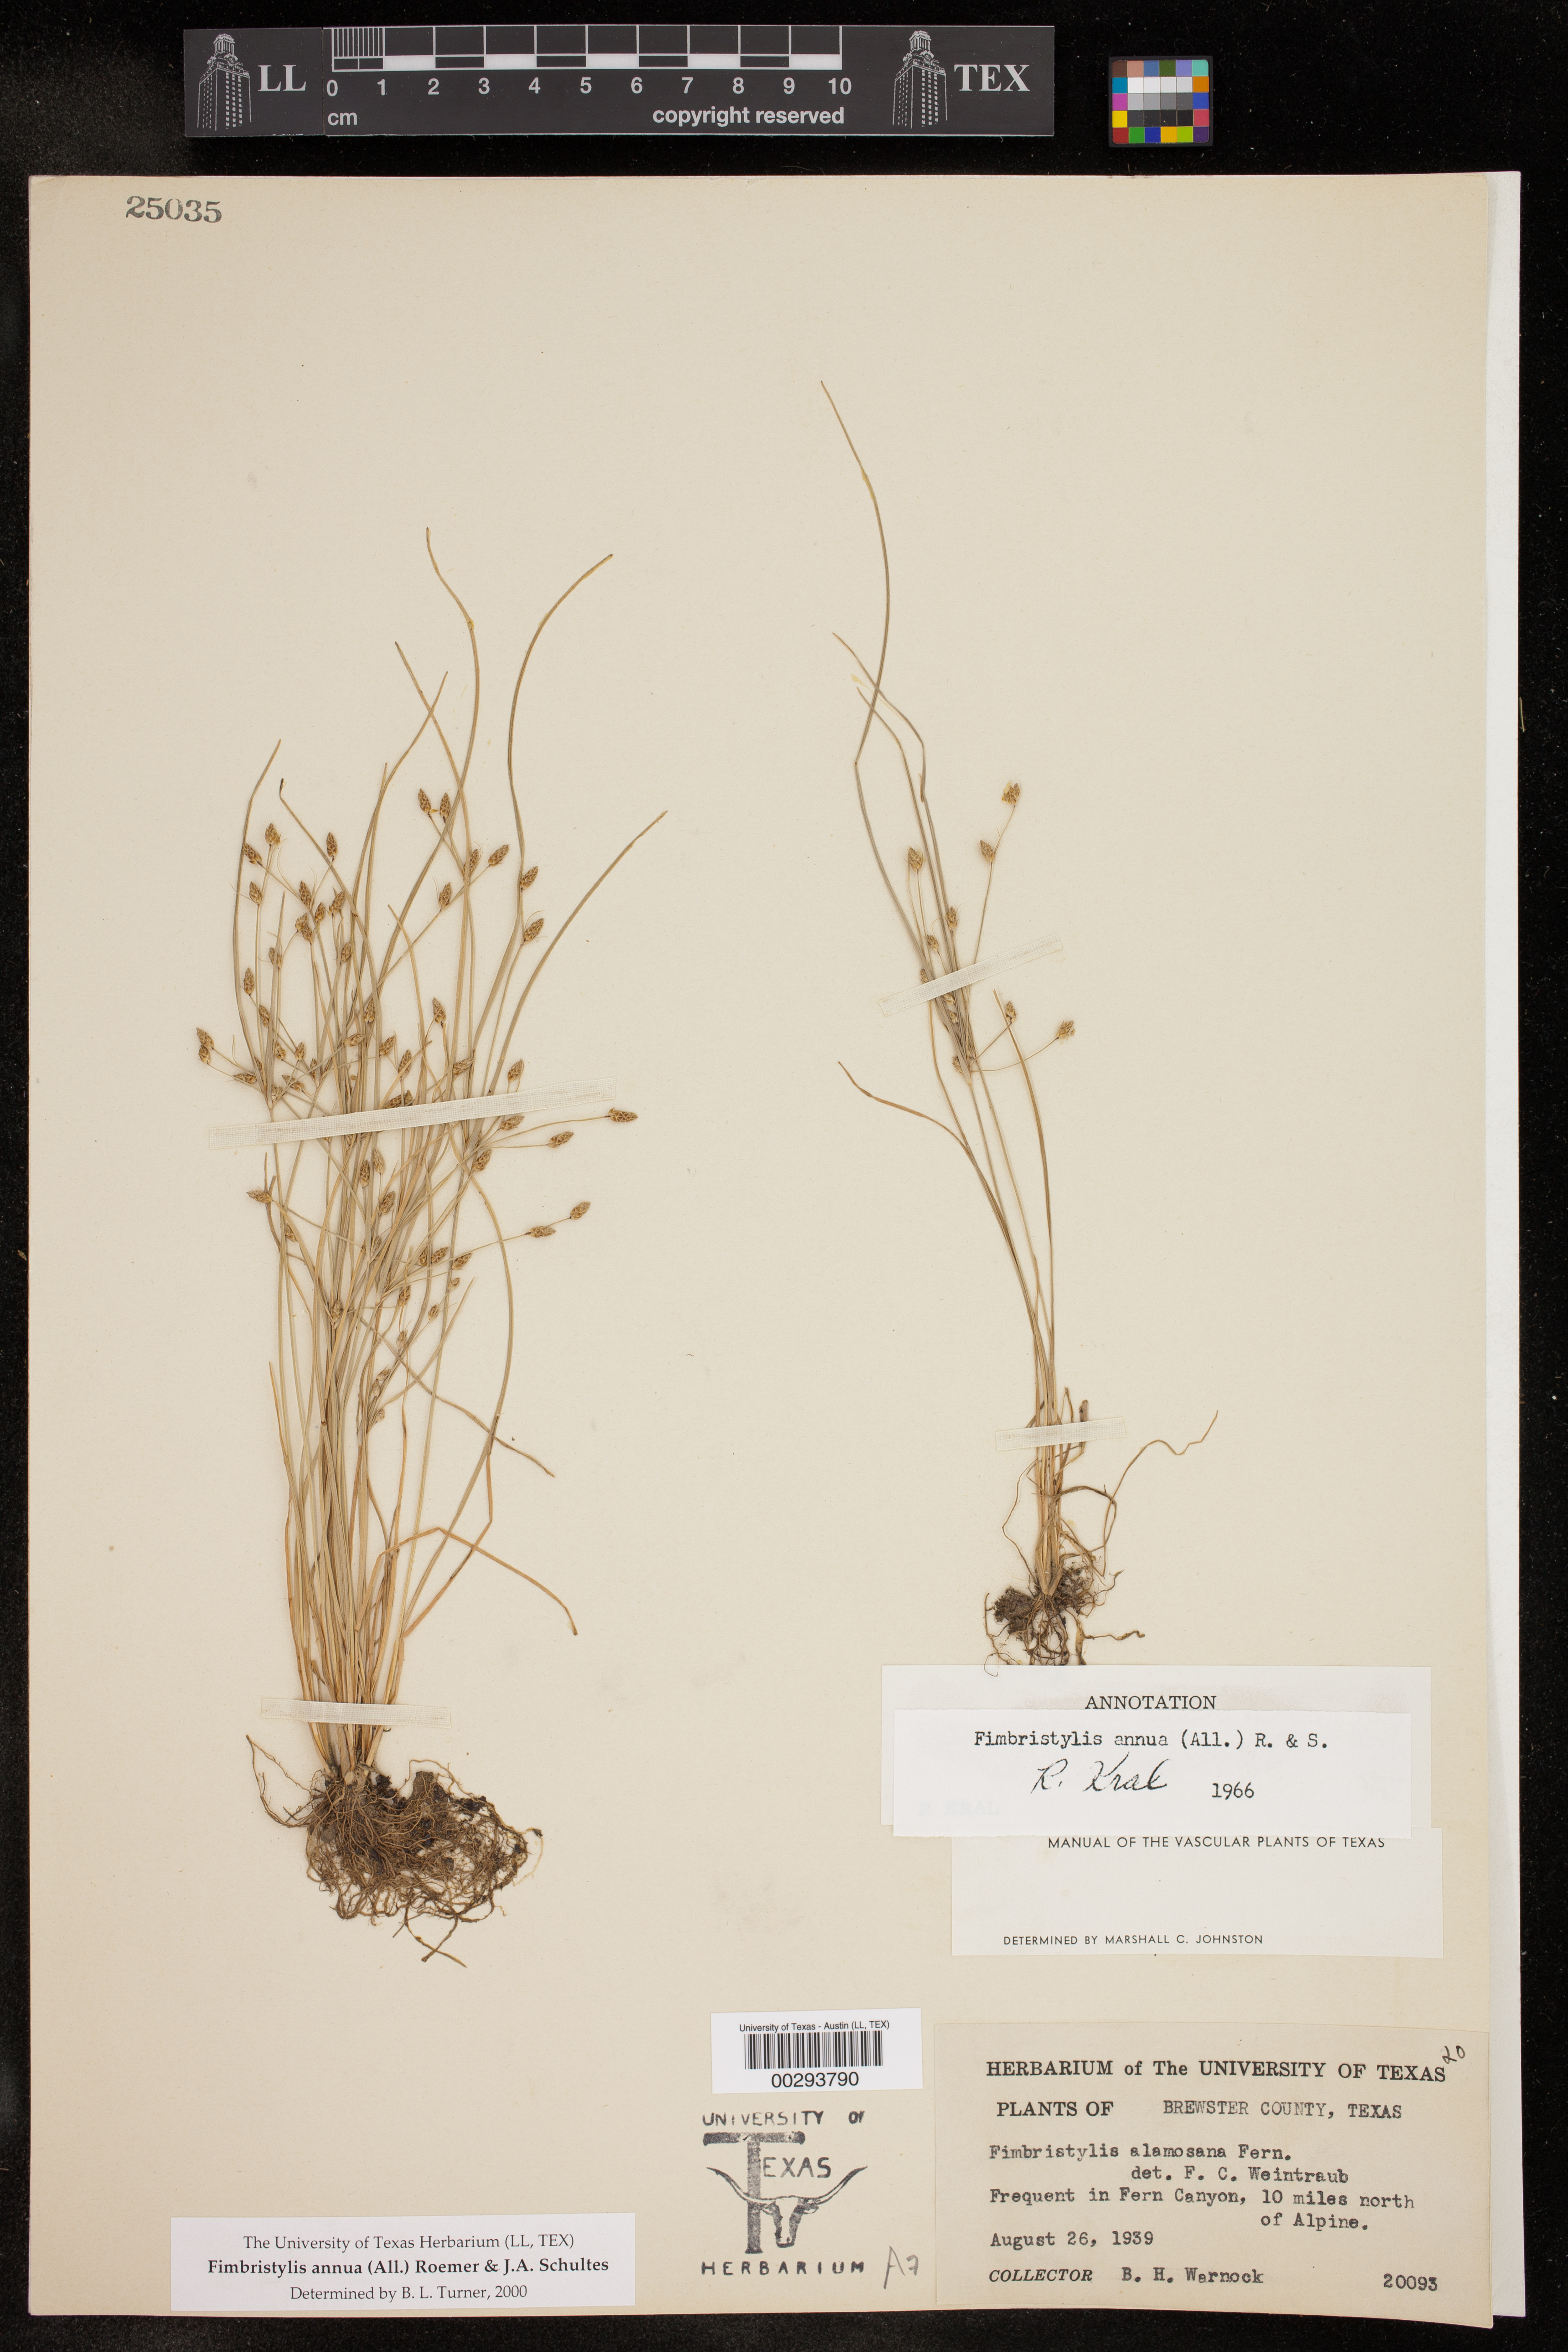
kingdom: Plantae
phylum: Tracheophyta
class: Liliopsida
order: Poales
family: Cyperaceae
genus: Fimbristylis
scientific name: Fimbristylis annua
